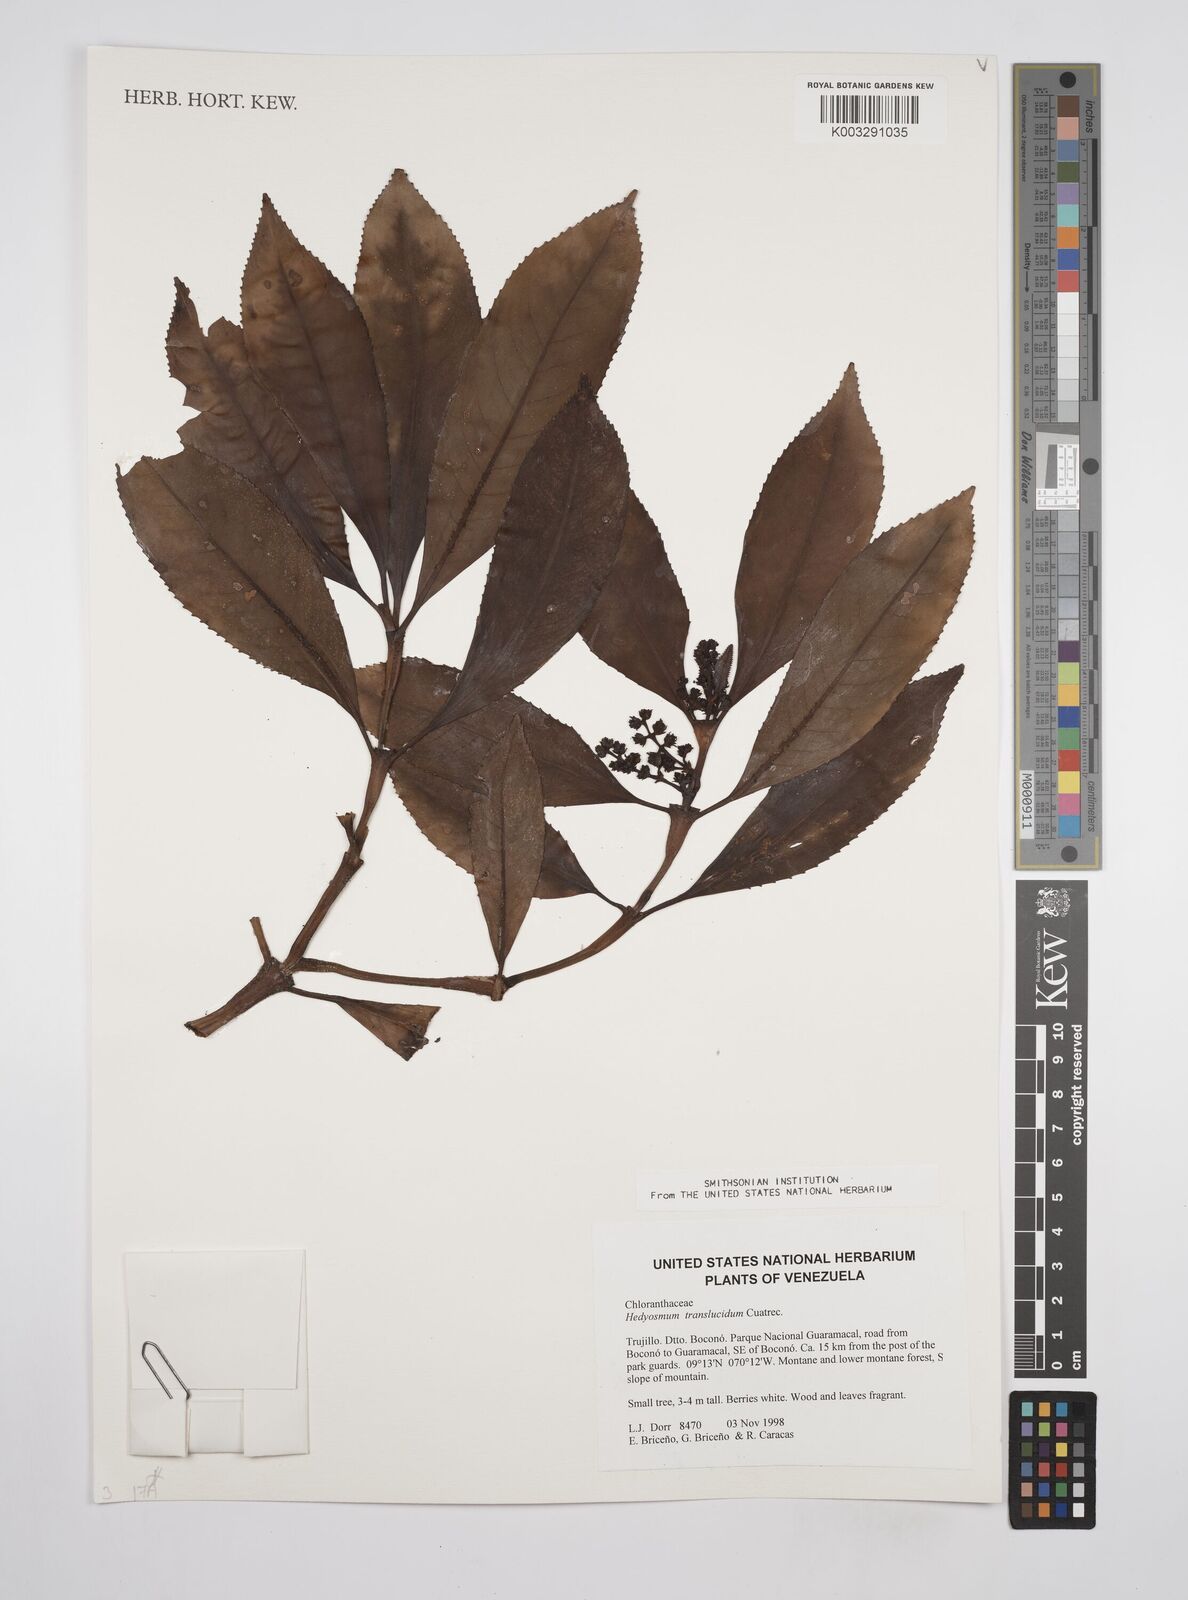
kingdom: Plantae
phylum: Tracheophyta
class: Magnoliopsida
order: Chloranthales
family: Chloranthaceae
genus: Hedyosmum
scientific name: Hedyosmum translucidum
